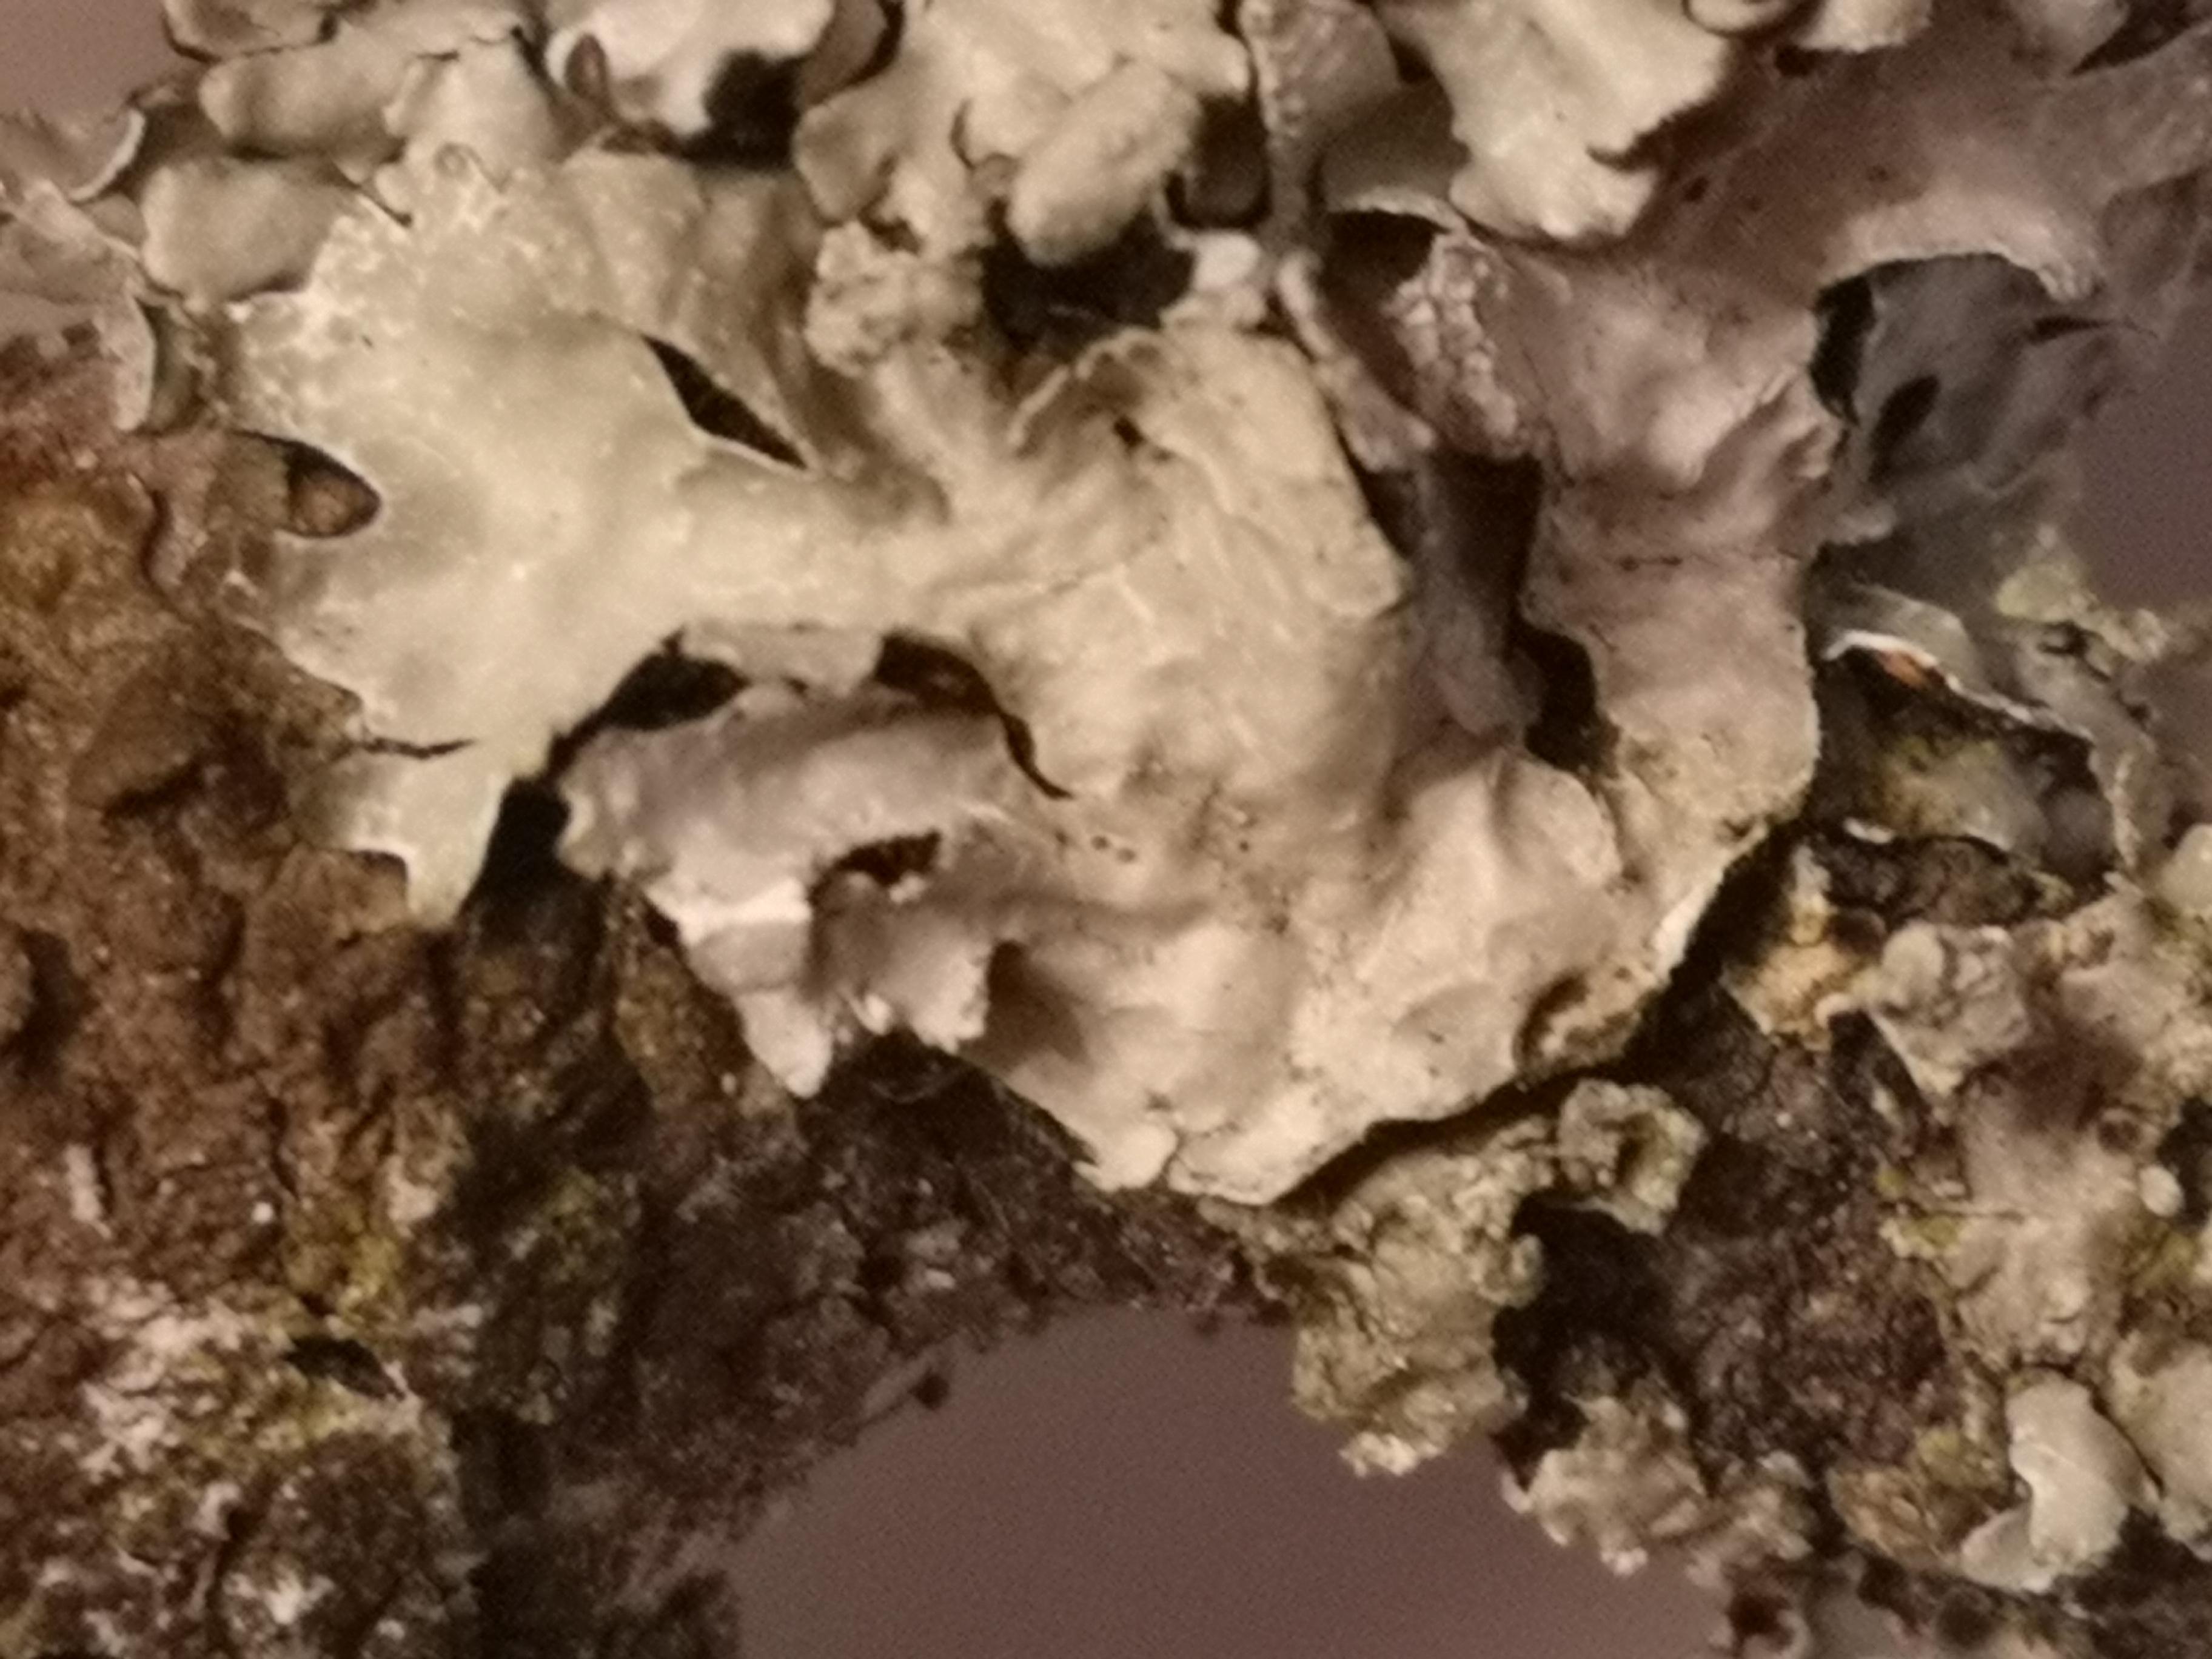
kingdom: Fungi
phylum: Ascomycota
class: Lecanoromycetes
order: Lecanorales
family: Parmeliaceae
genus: Parmelia
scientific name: Parmelia sulcata
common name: rynket skållav
